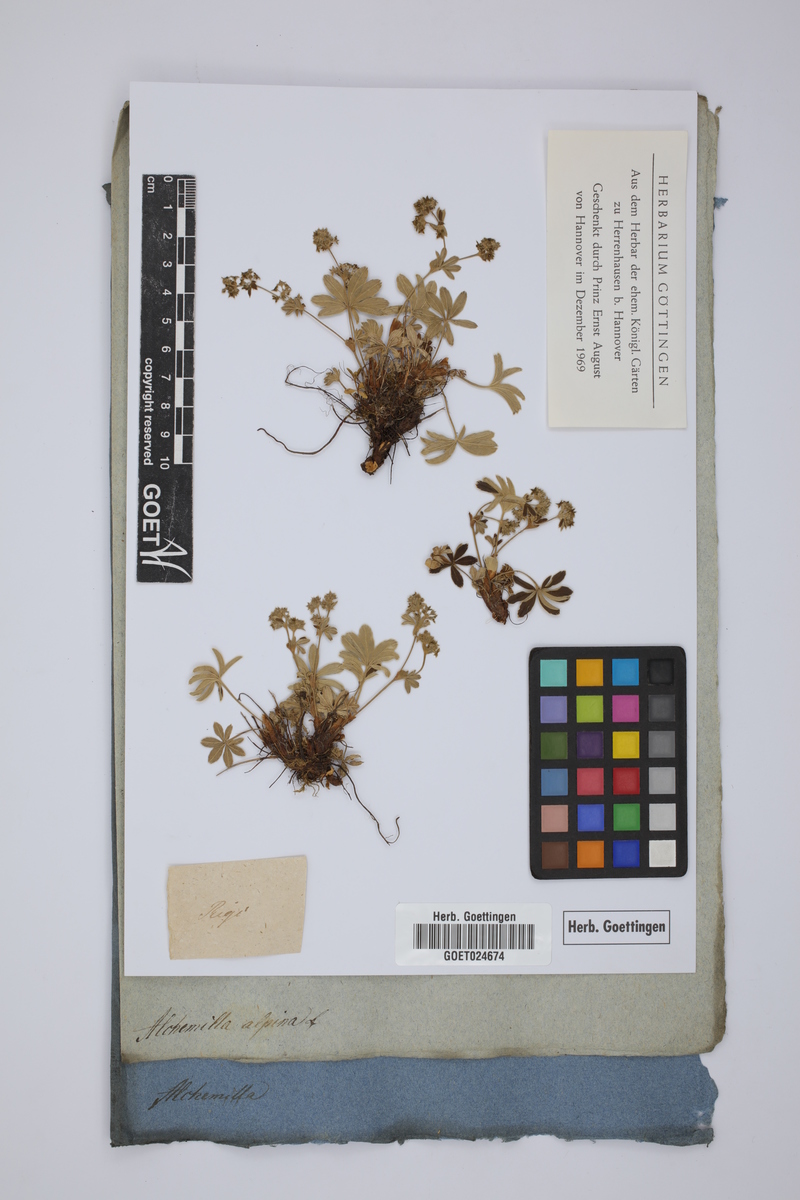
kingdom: Plantae
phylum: Tracheophyta
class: Magnoliopsida
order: Rosales
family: Rosaceae
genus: Alchemilla
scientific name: Alchemilla alpina
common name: Alpine lady's-mantle
